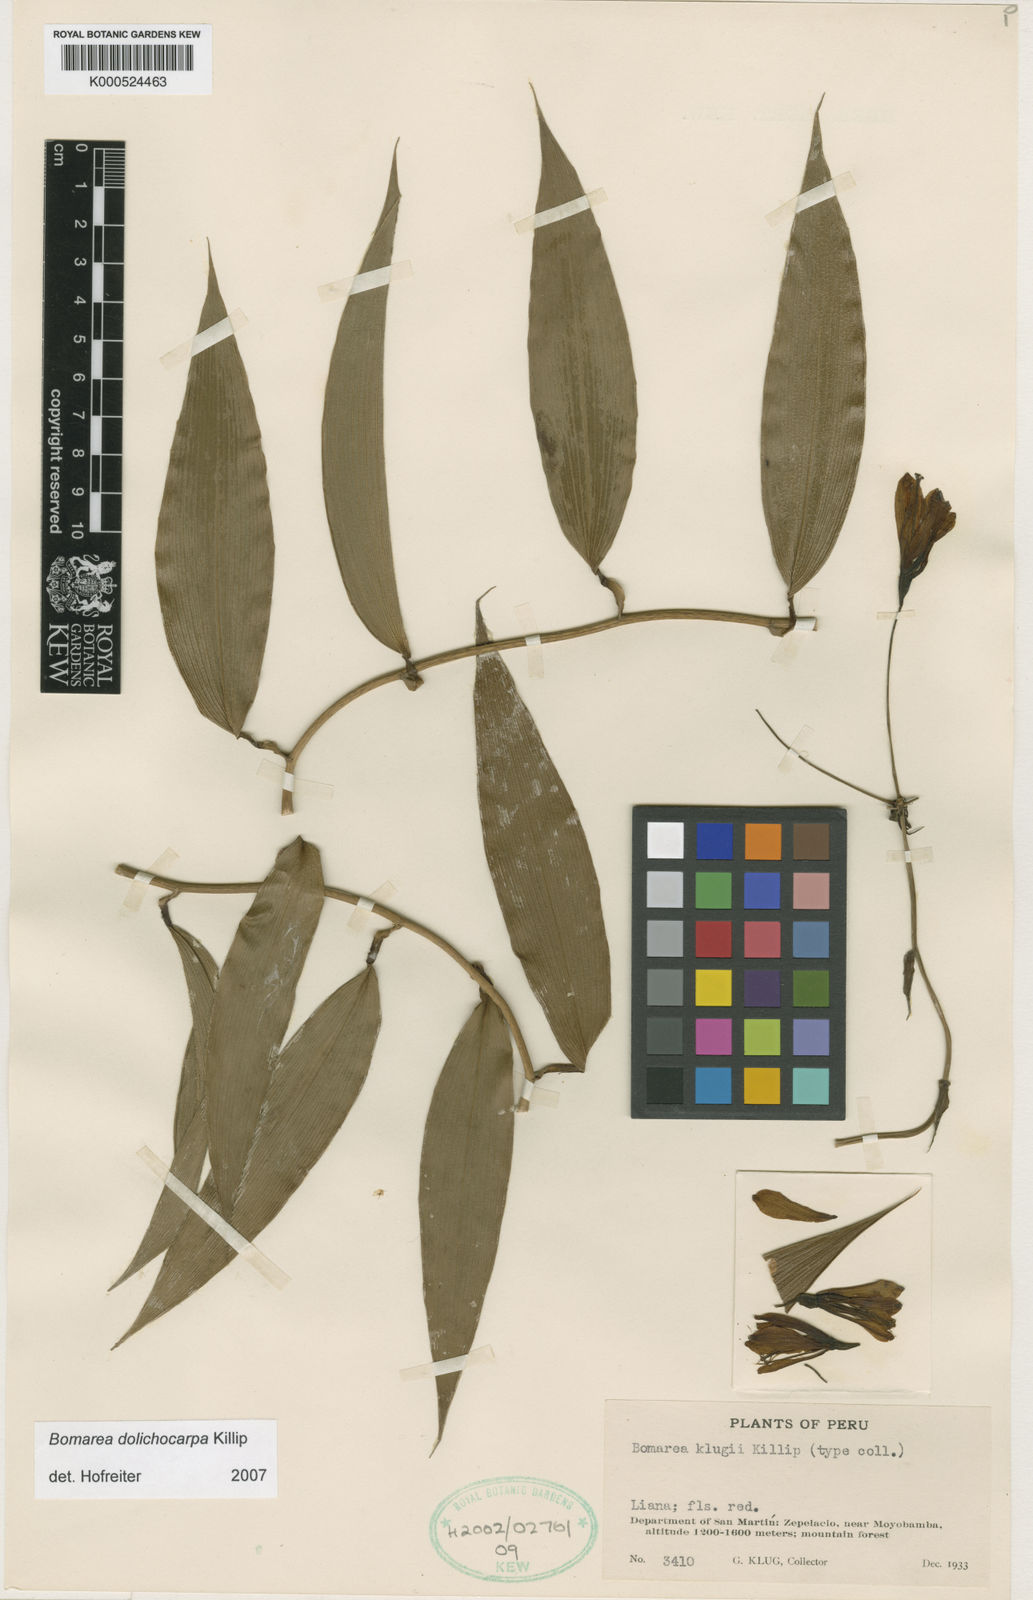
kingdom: Plantae
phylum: Tracheophyta
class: Liliopsida
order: Liliales
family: Alstroemeriaceae
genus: Bomarea
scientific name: Bomarea dolichocarpa
